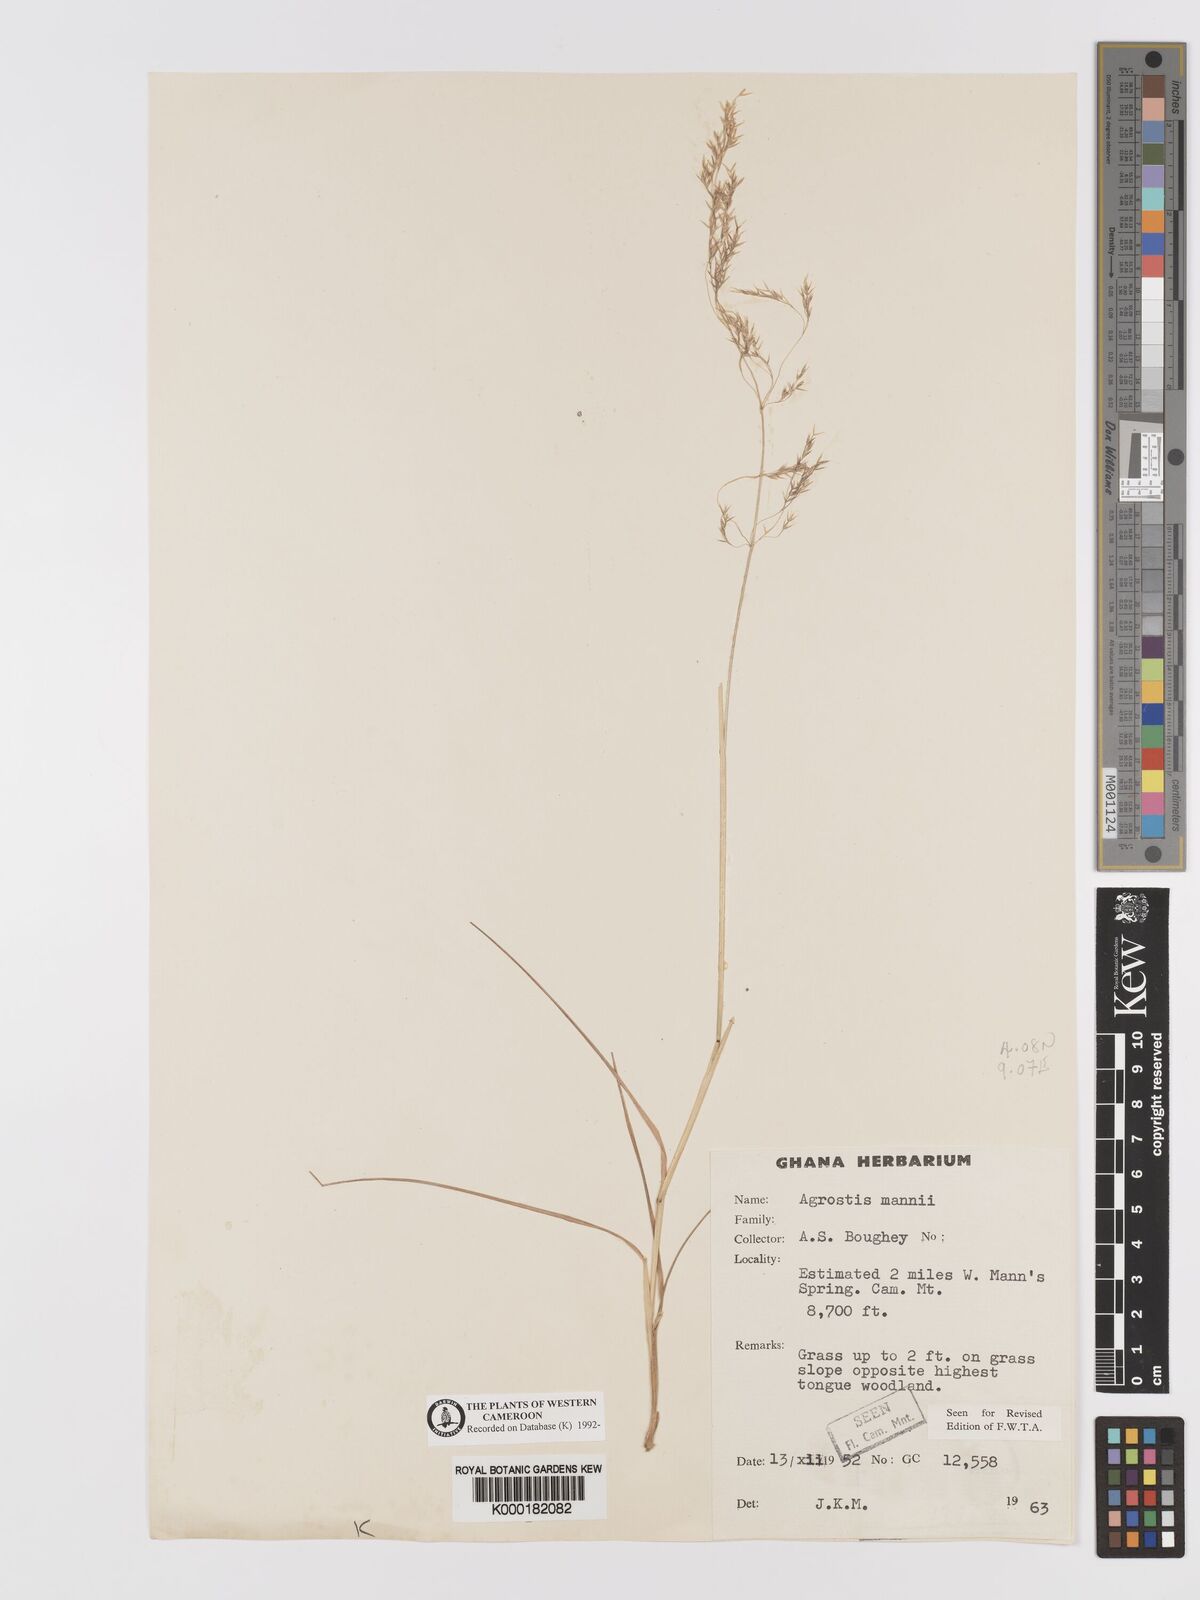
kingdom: Plantae
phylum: Tracheophyta
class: Liliopsida
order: Poales
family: Poaceae
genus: Agrostis
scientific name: Agrostis mannii
